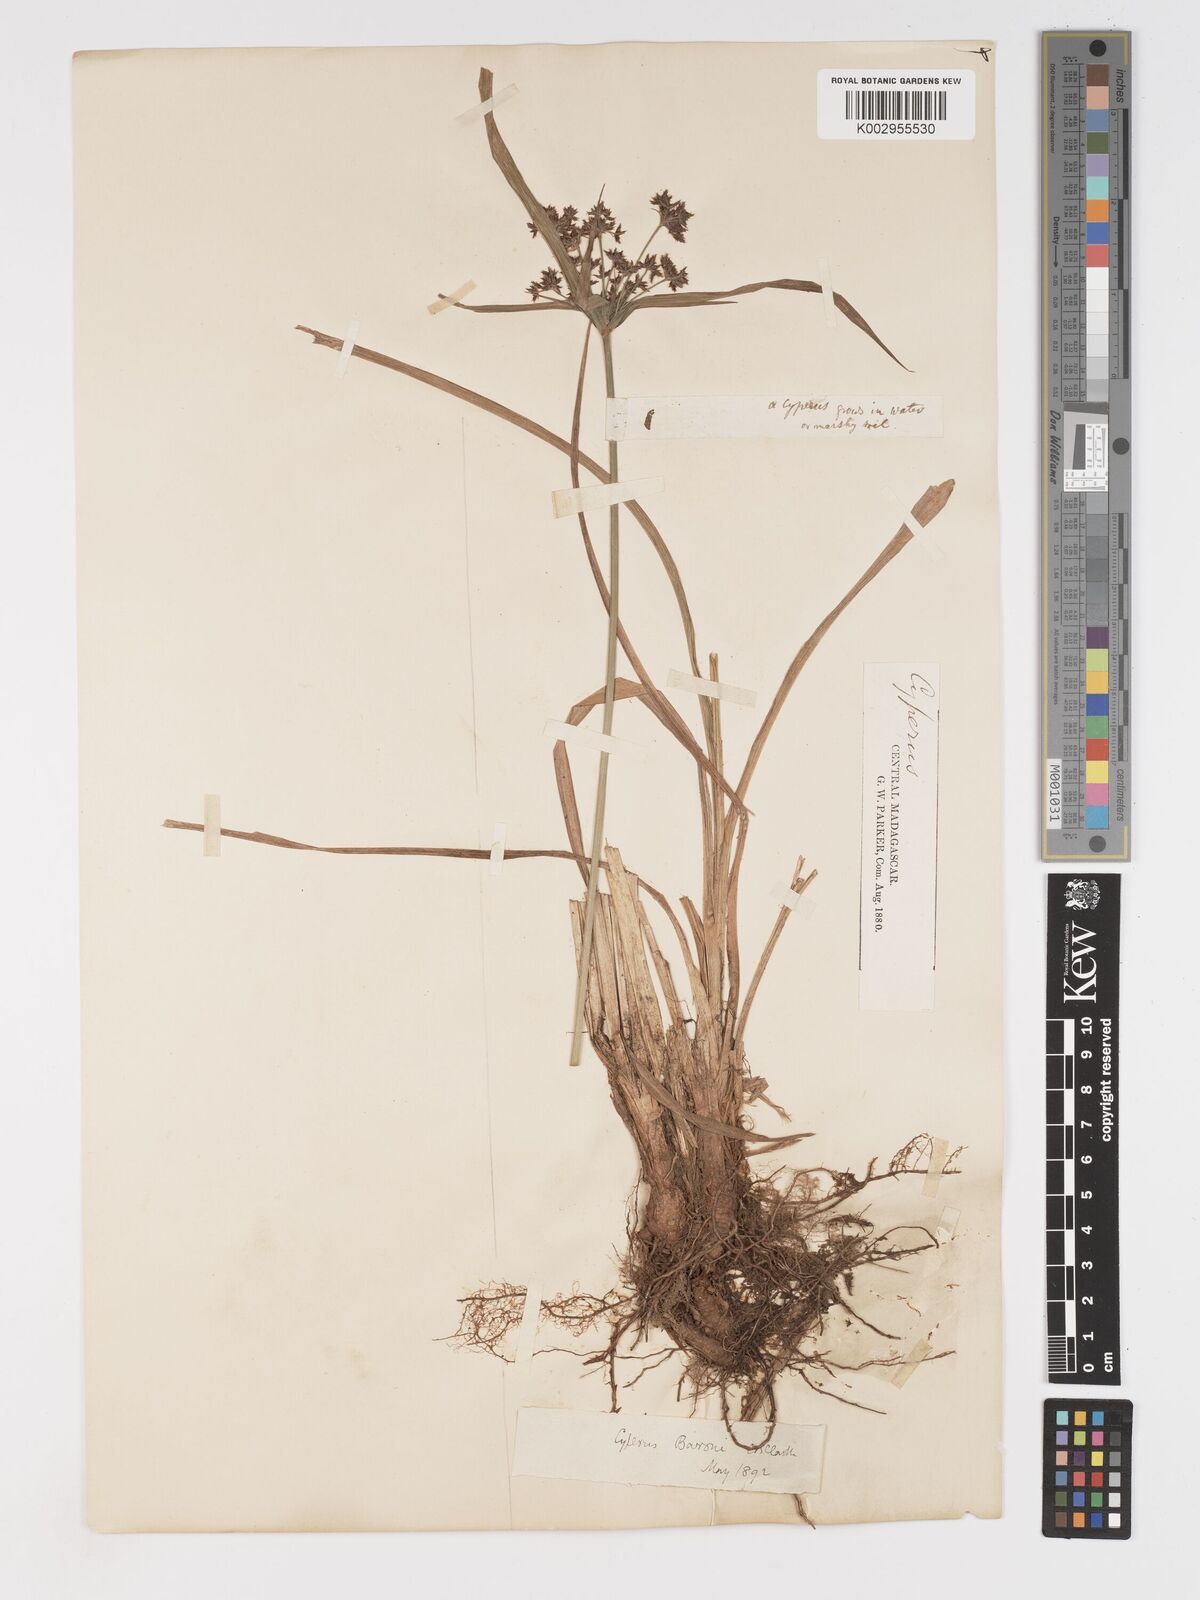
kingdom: Plantae
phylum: Tracheophyta
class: Liliopsida
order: Poales
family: Cyperaceae
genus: Cyperus
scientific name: Cyperus baronii
